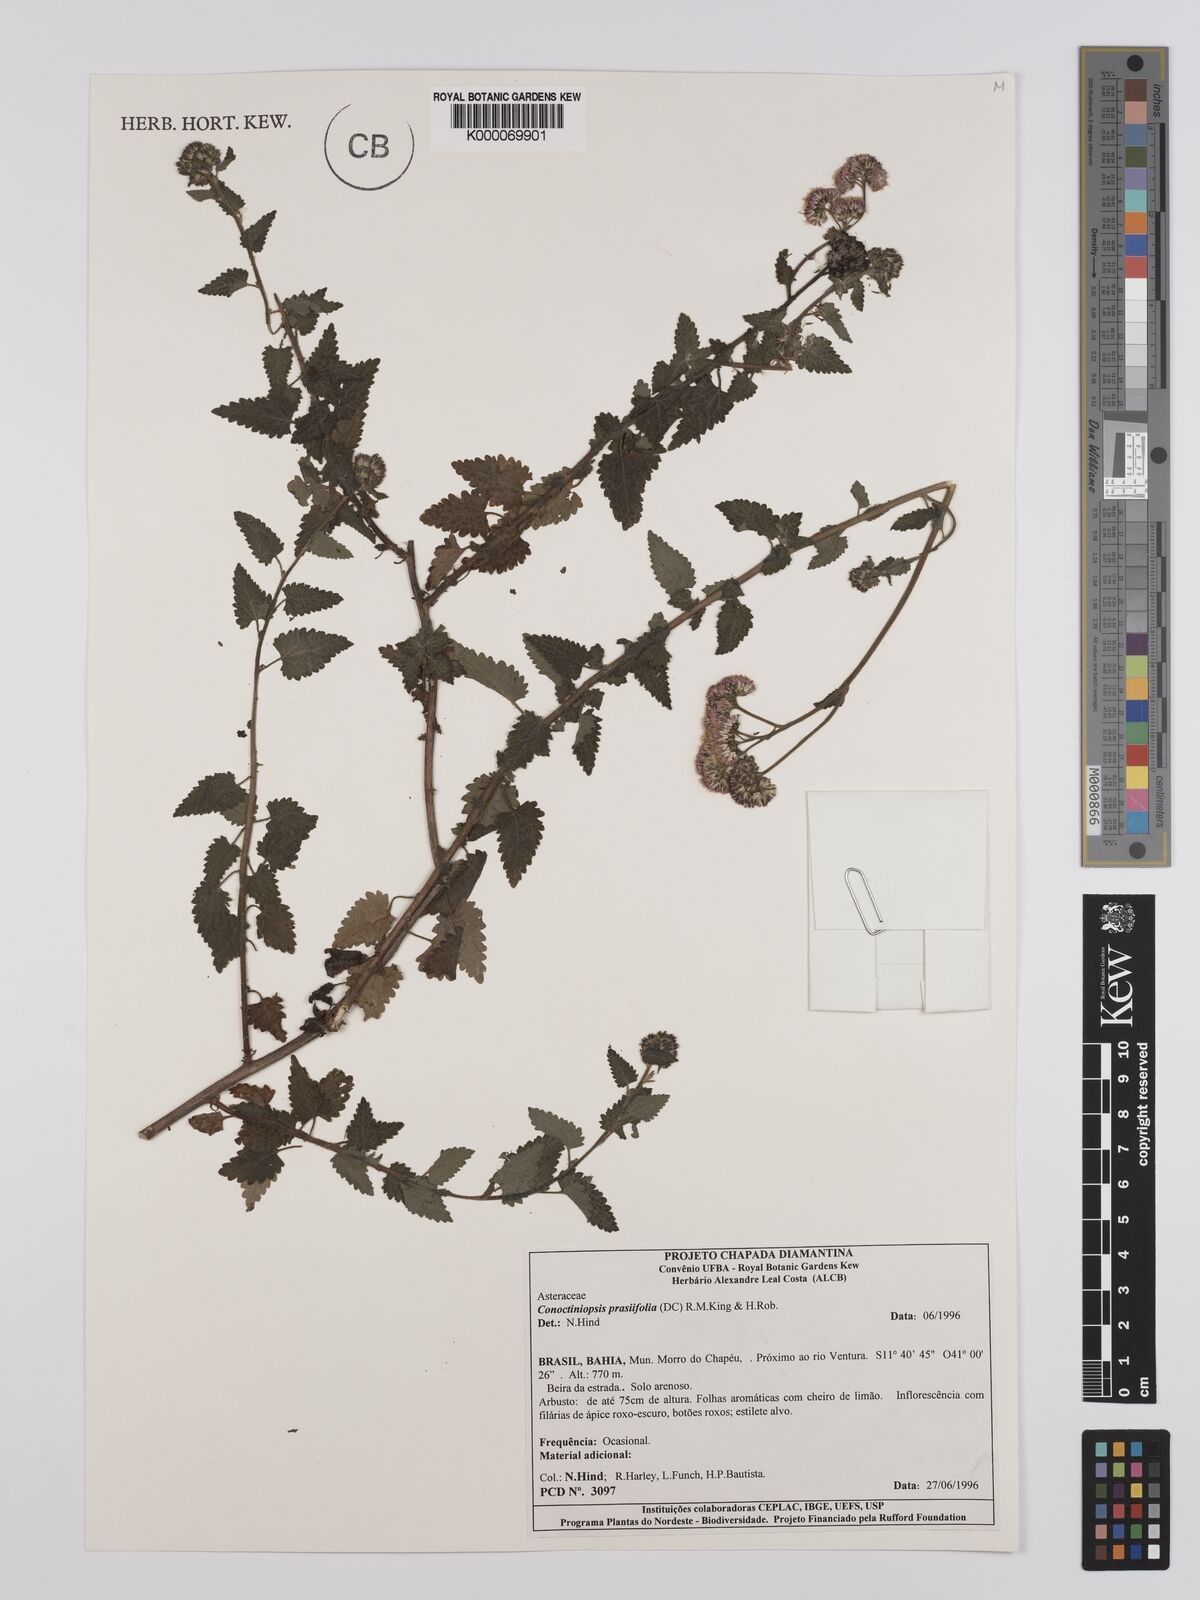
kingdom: Plantae
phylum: Tracheophyta
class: Magnoliopsida
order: Asterales
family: Asteraceae
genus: Conocliniopsis
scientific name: Conocliniopsis grossedentata
